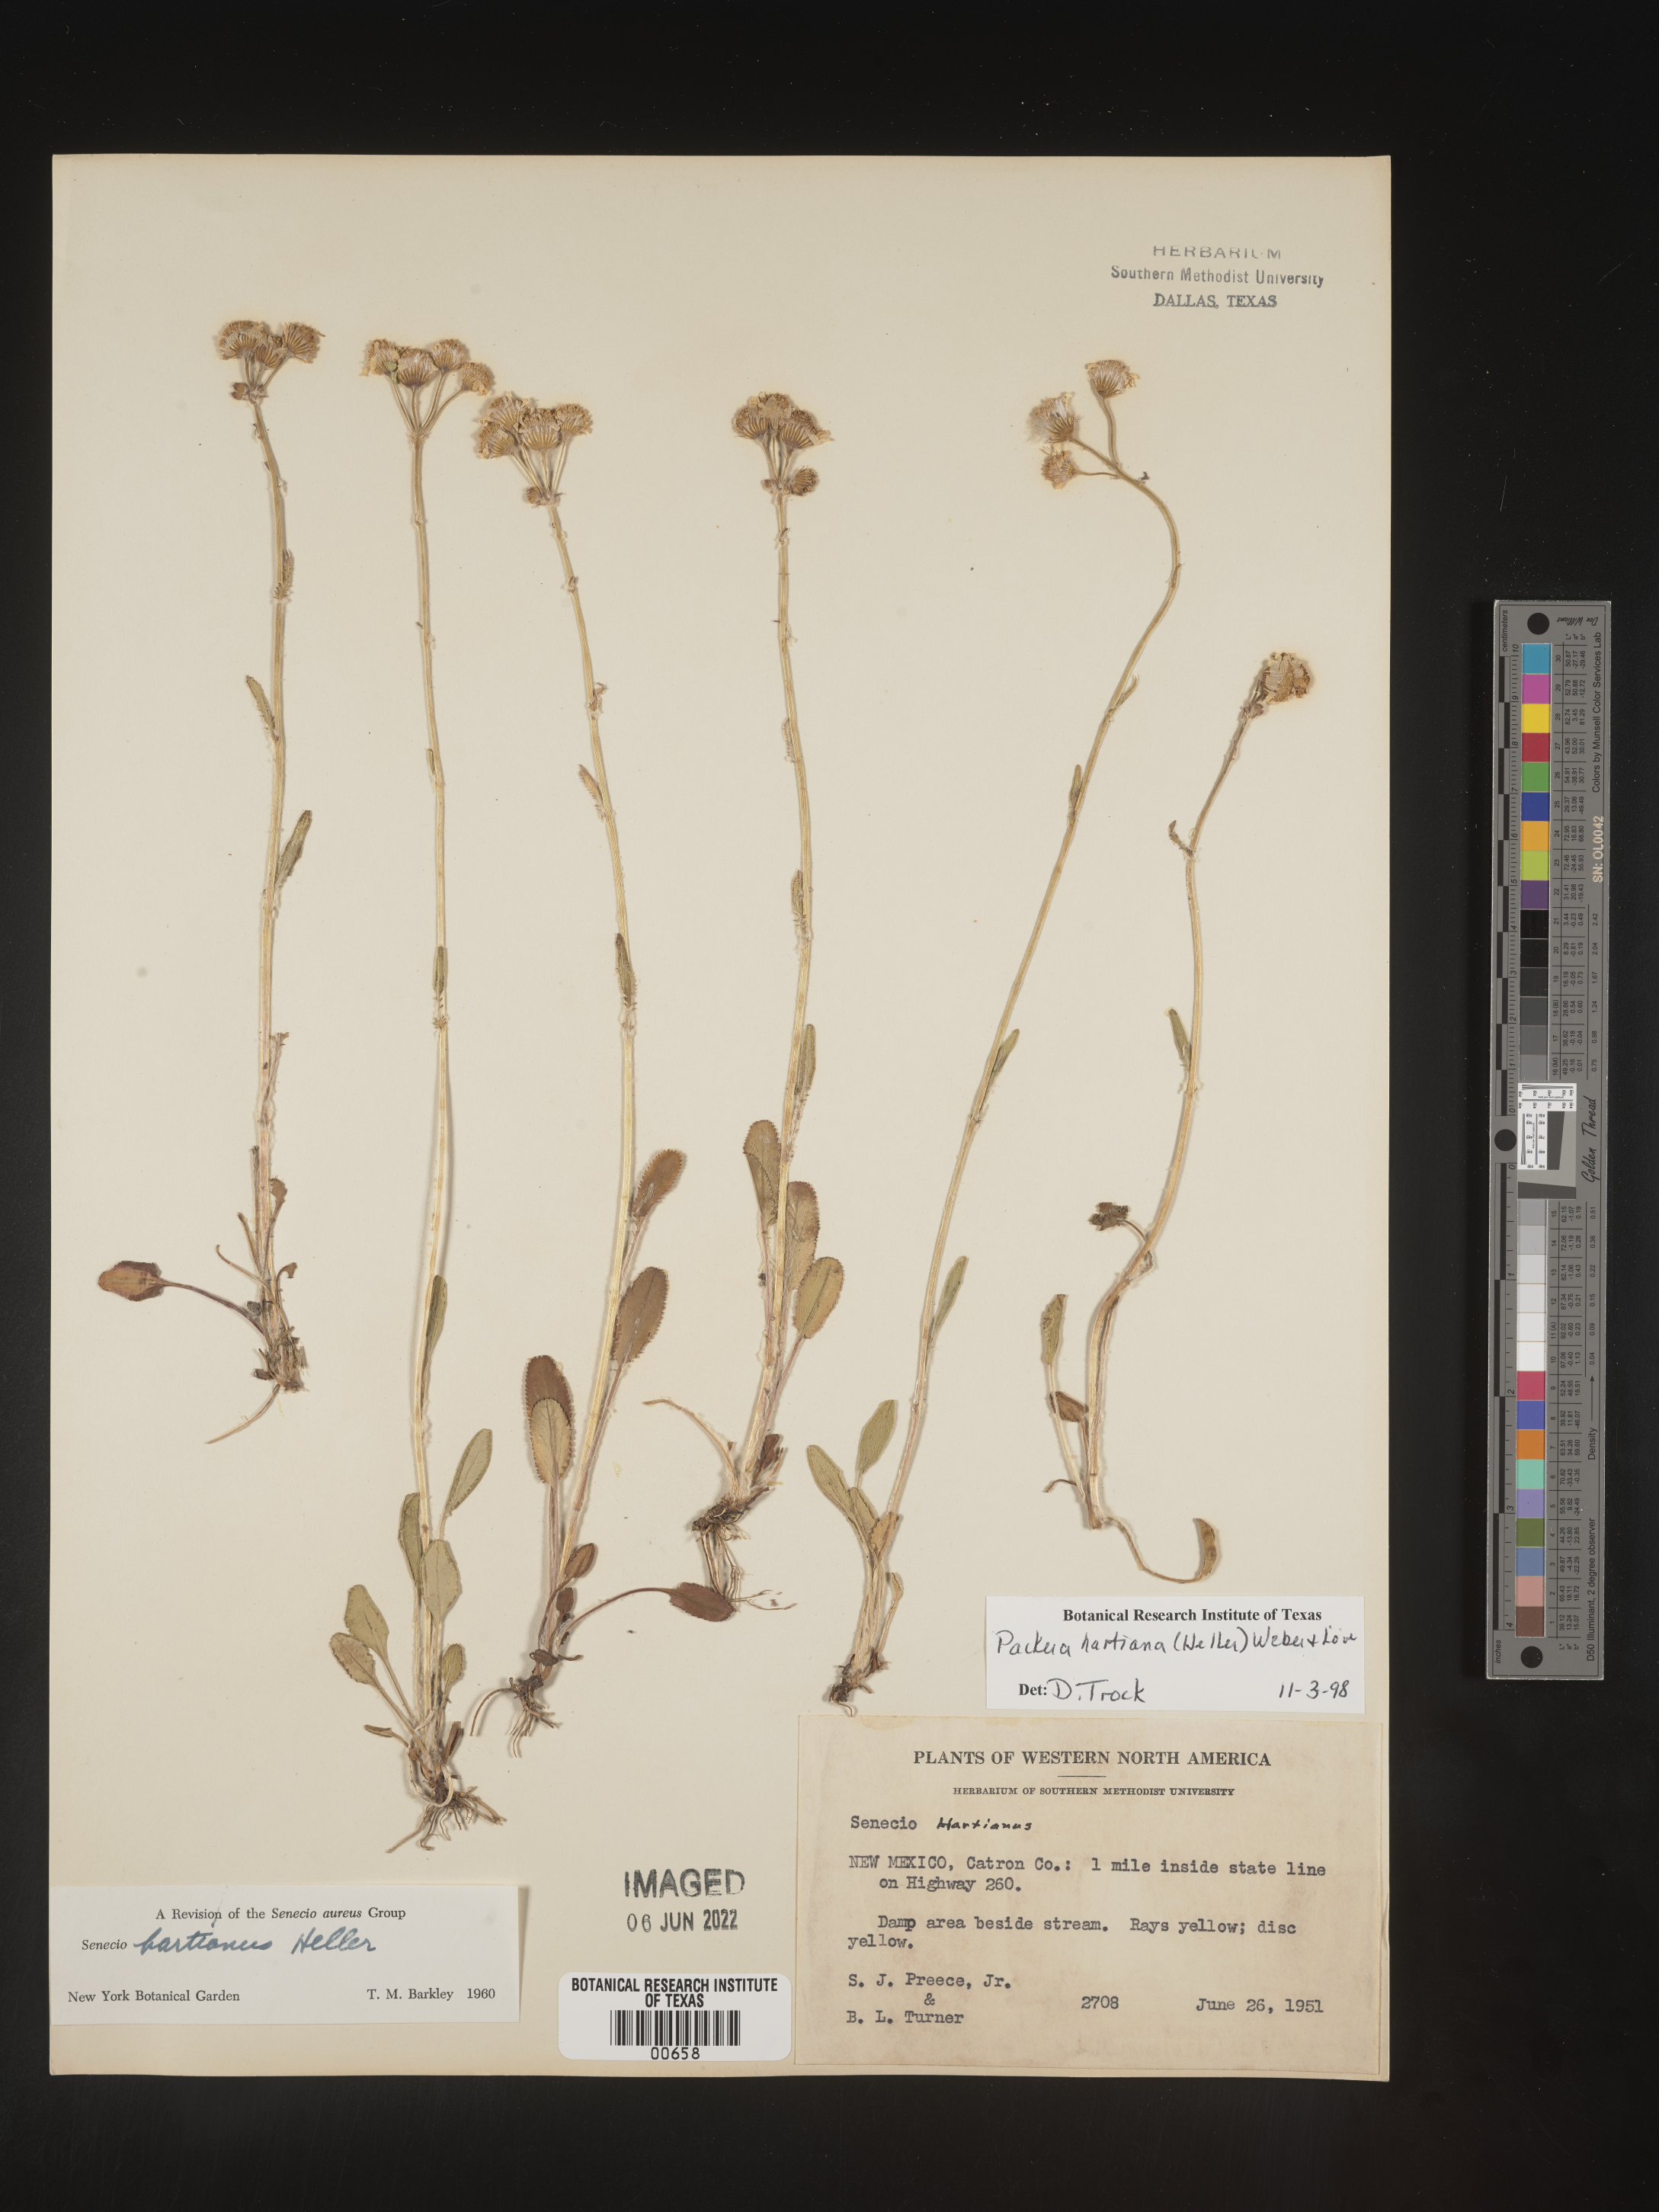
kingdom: Plantae
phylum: Tracheophyta
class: Magnoliopsida
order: Asterales
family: Asteraceae
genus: Packera
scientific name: Packera hartiana
